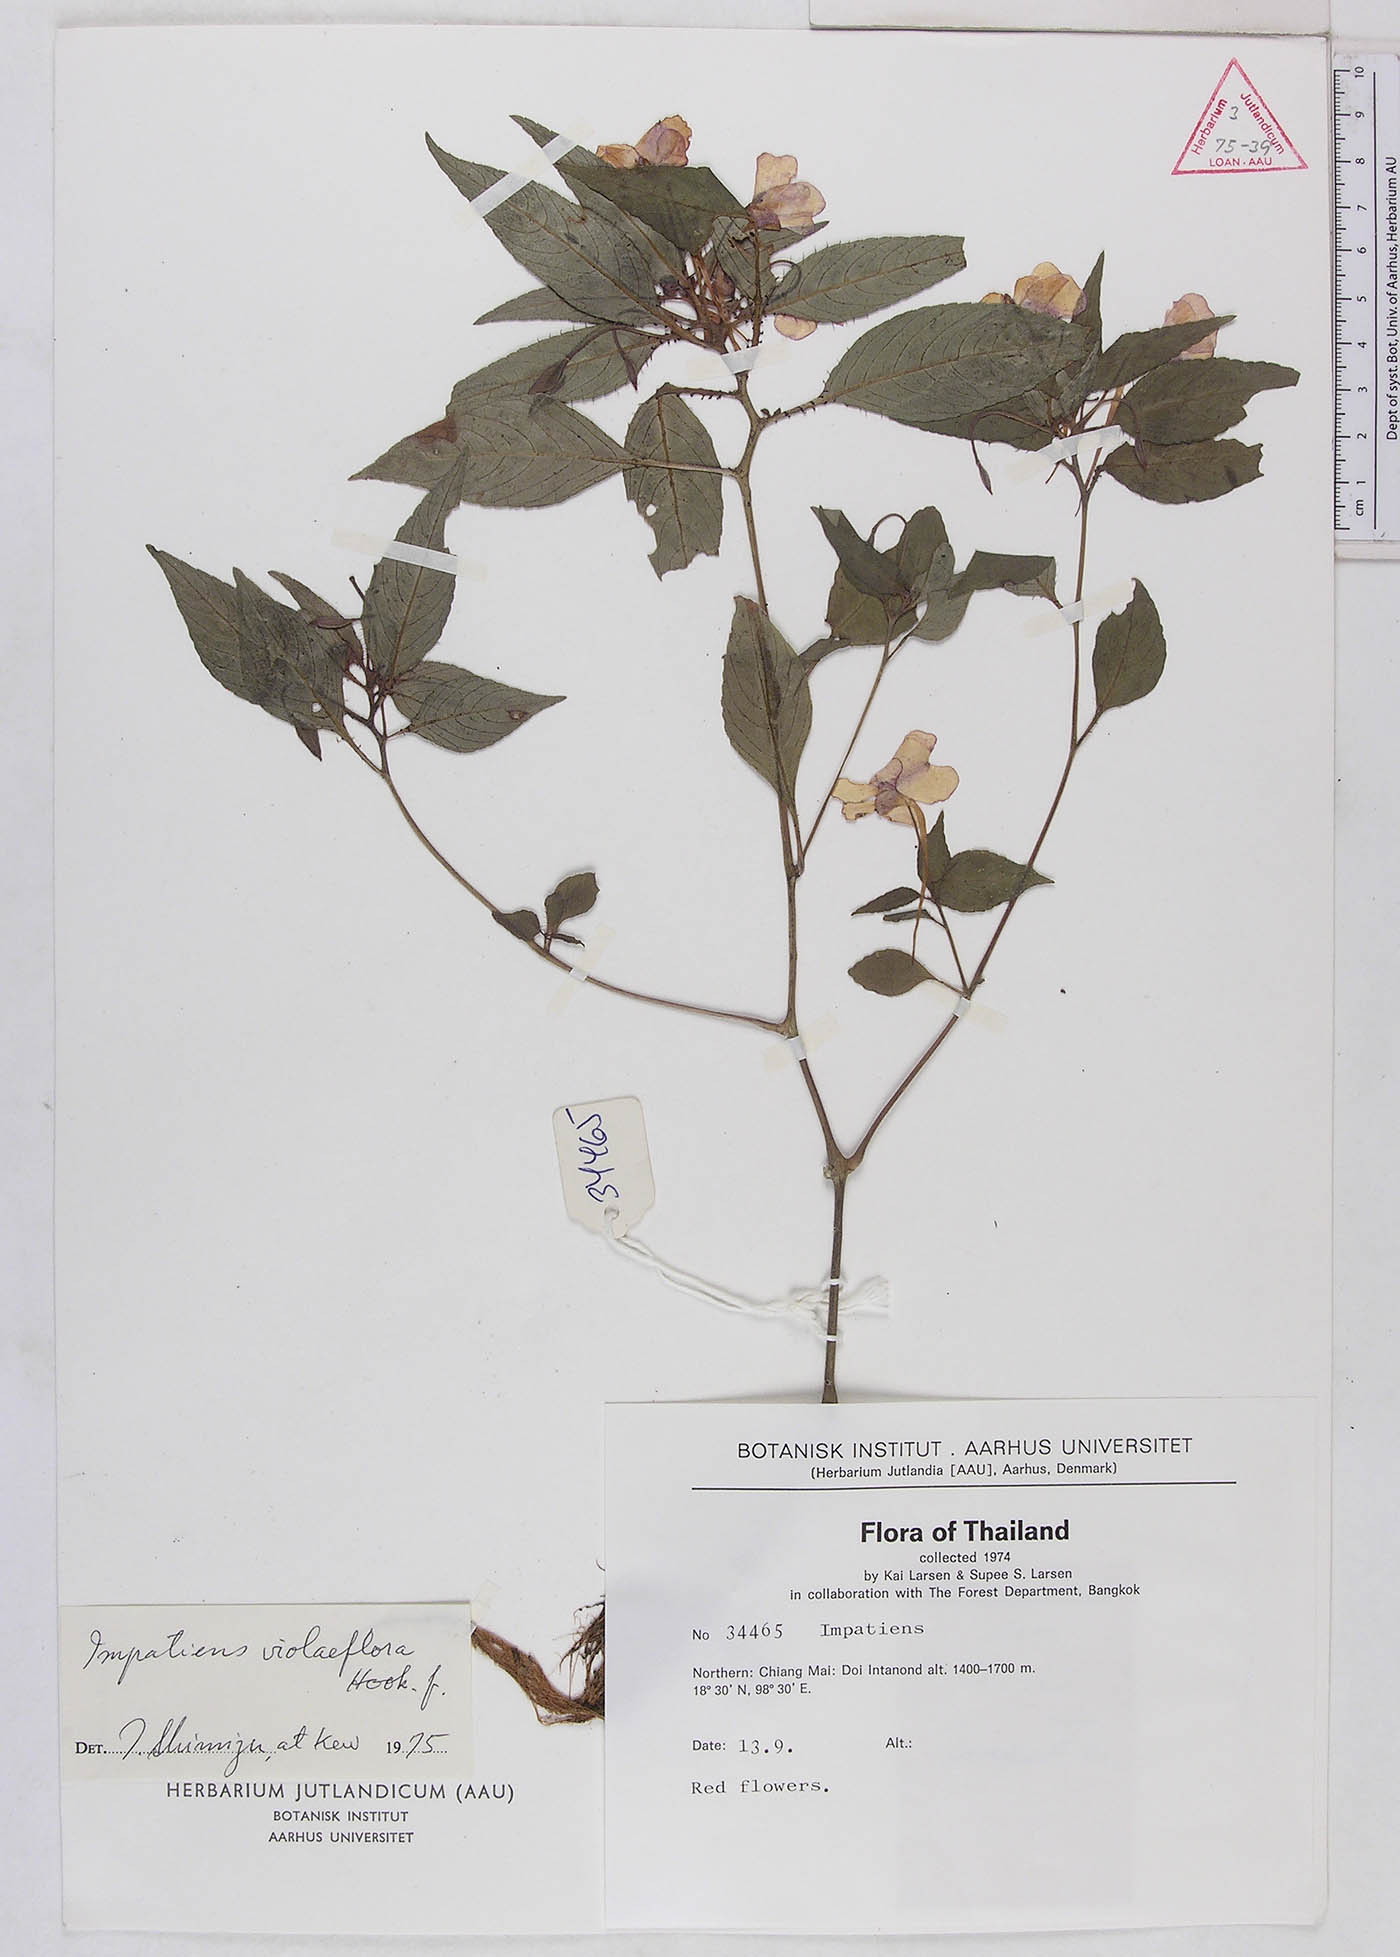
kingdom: Plantae
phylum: Tracheophyta
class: Magnoliopsida
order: Ericales
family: Balsaminaceae
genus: Impatiens
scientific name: Impatiens violiflora
